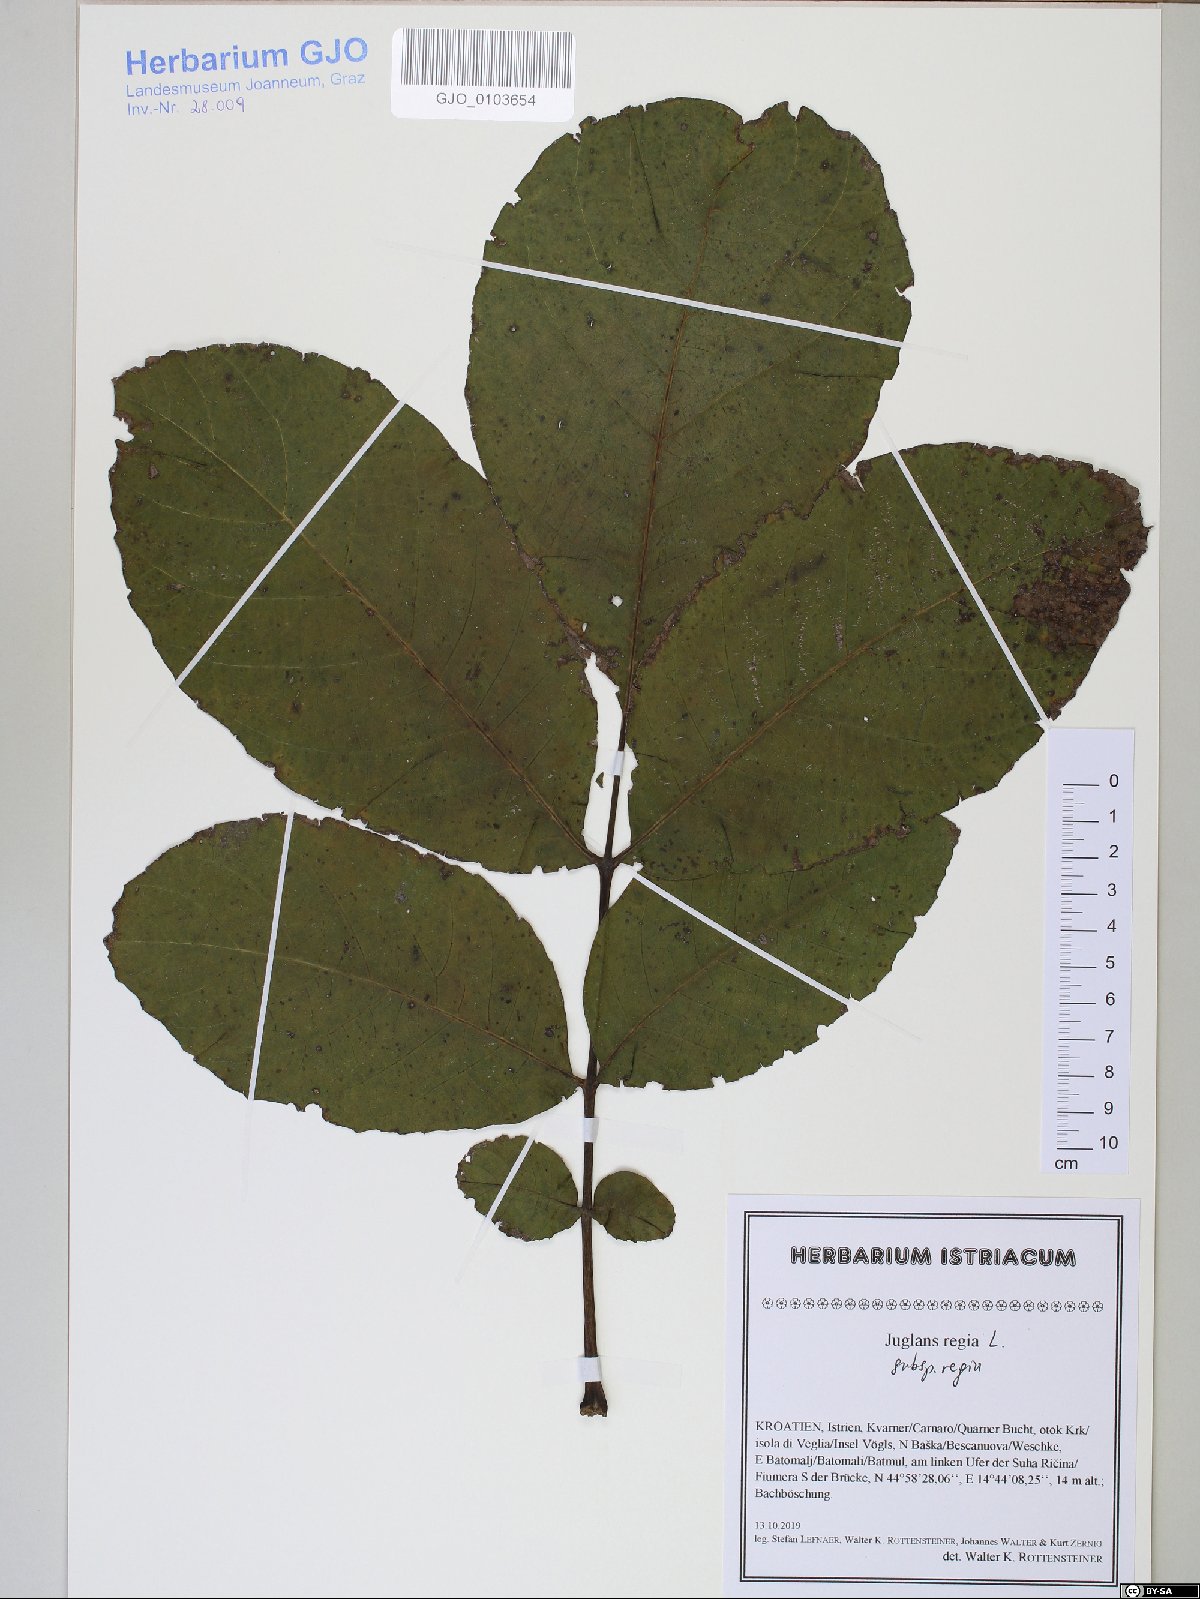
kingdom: Plantae
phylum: Tracheophyta
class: Magnoliopsida
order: Fagales
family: Juglandaceae
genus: Juglans
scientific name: Juglans regia
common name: Walnut
